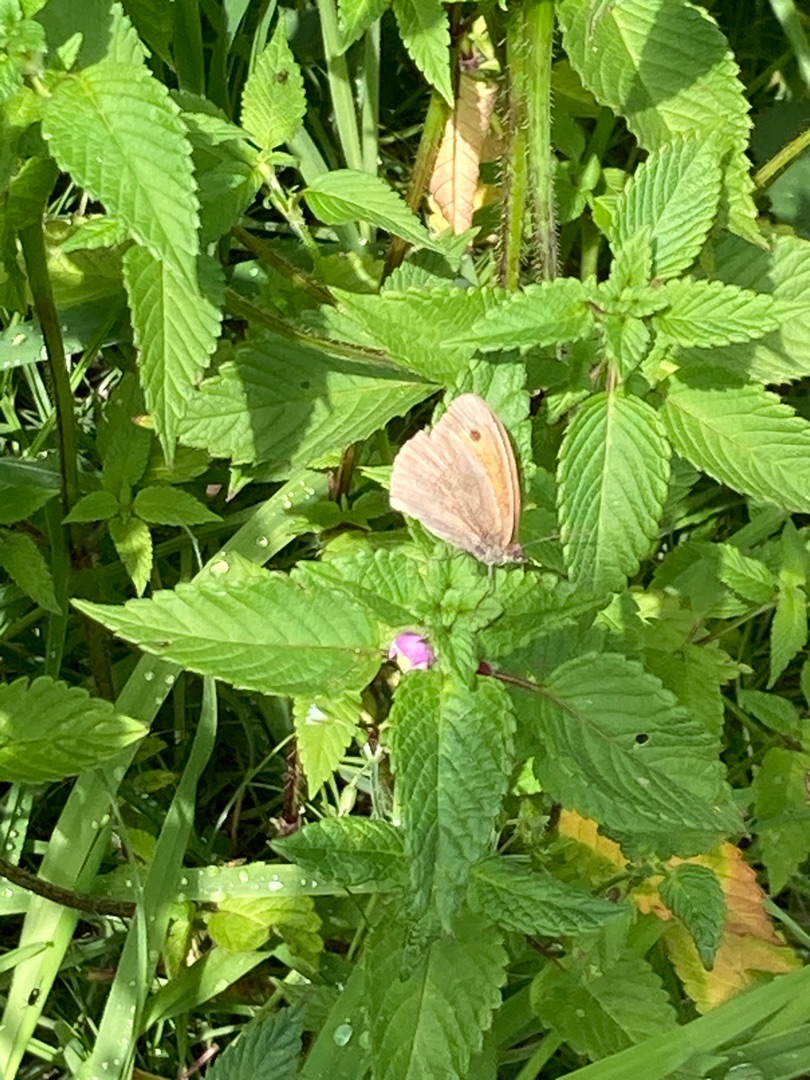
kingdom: Animalia
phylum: Arthropoda
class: Insecta
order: Lepidoptera
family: Nymphalidae
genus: Maniola
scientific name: Maniola jurtina
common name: Græsrandøje
